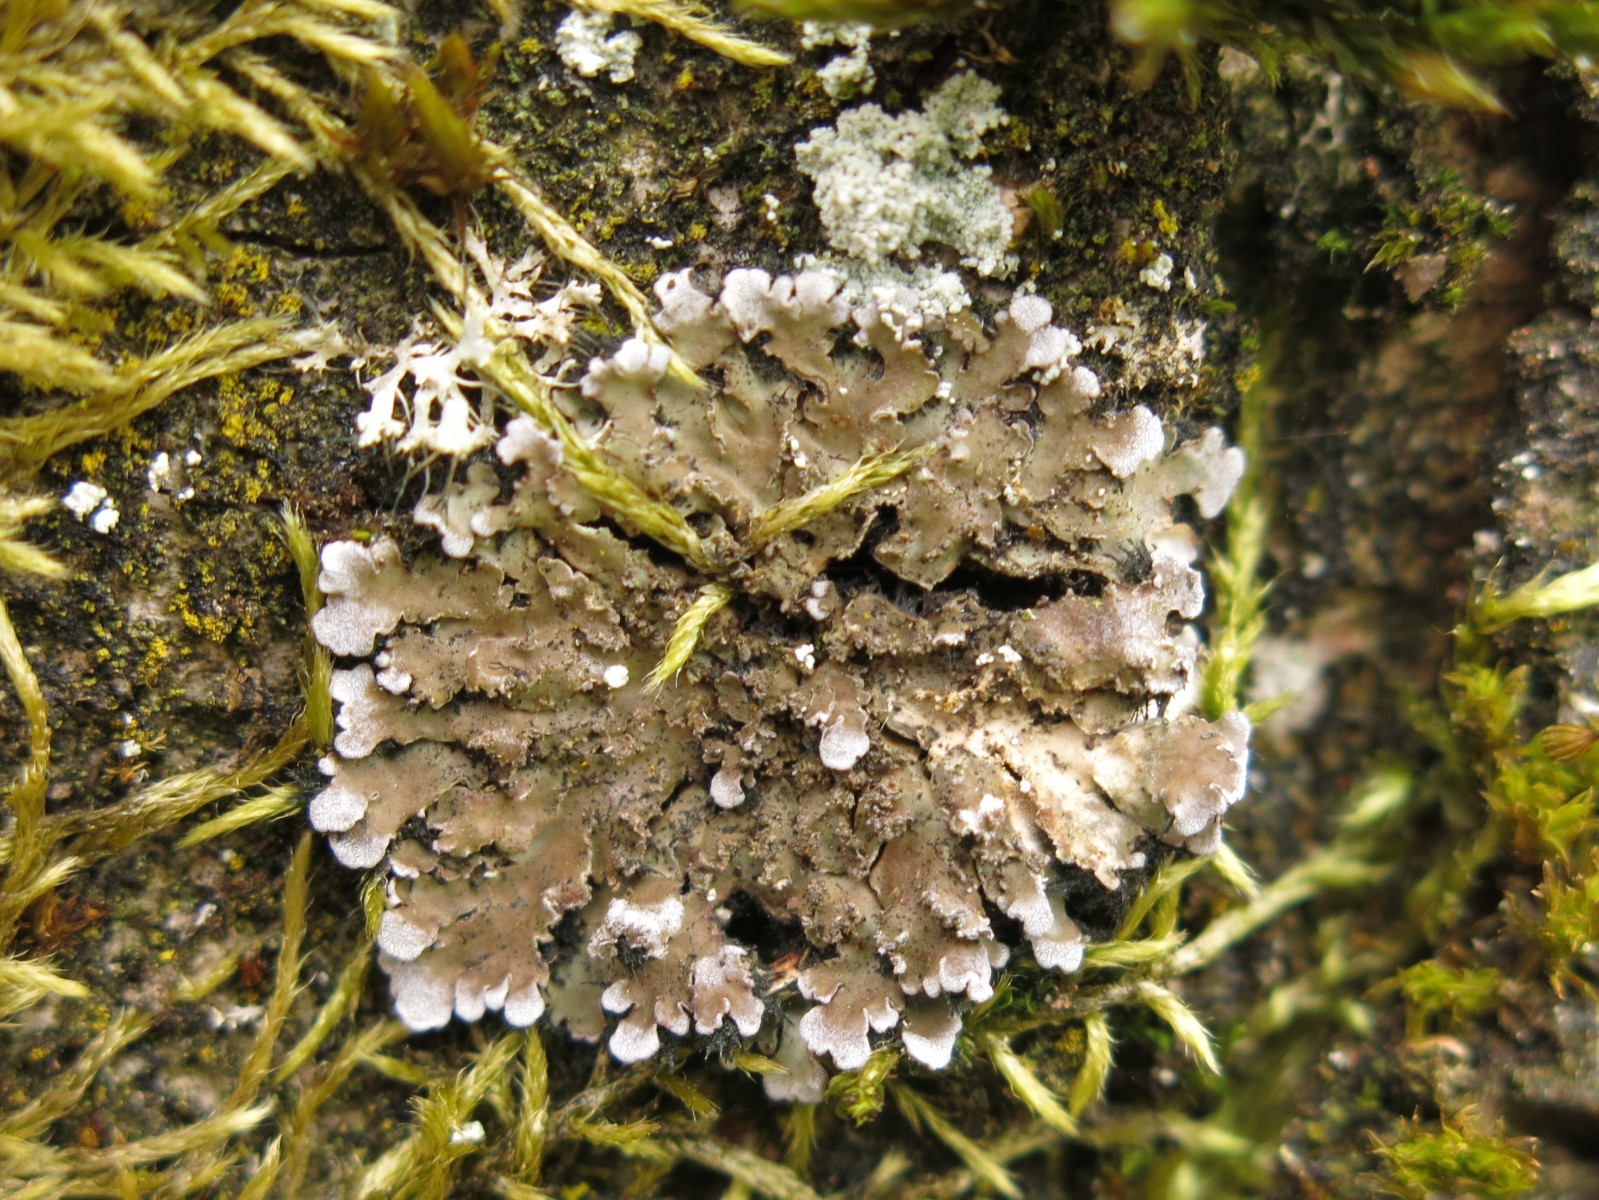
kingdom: Fungi
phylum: Ascomycota
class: Lecanoromycetes
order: Caliciales
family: Physciaceae
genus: Physconia
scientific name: Physconia perisidiosa
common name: liden dugrosetlav
